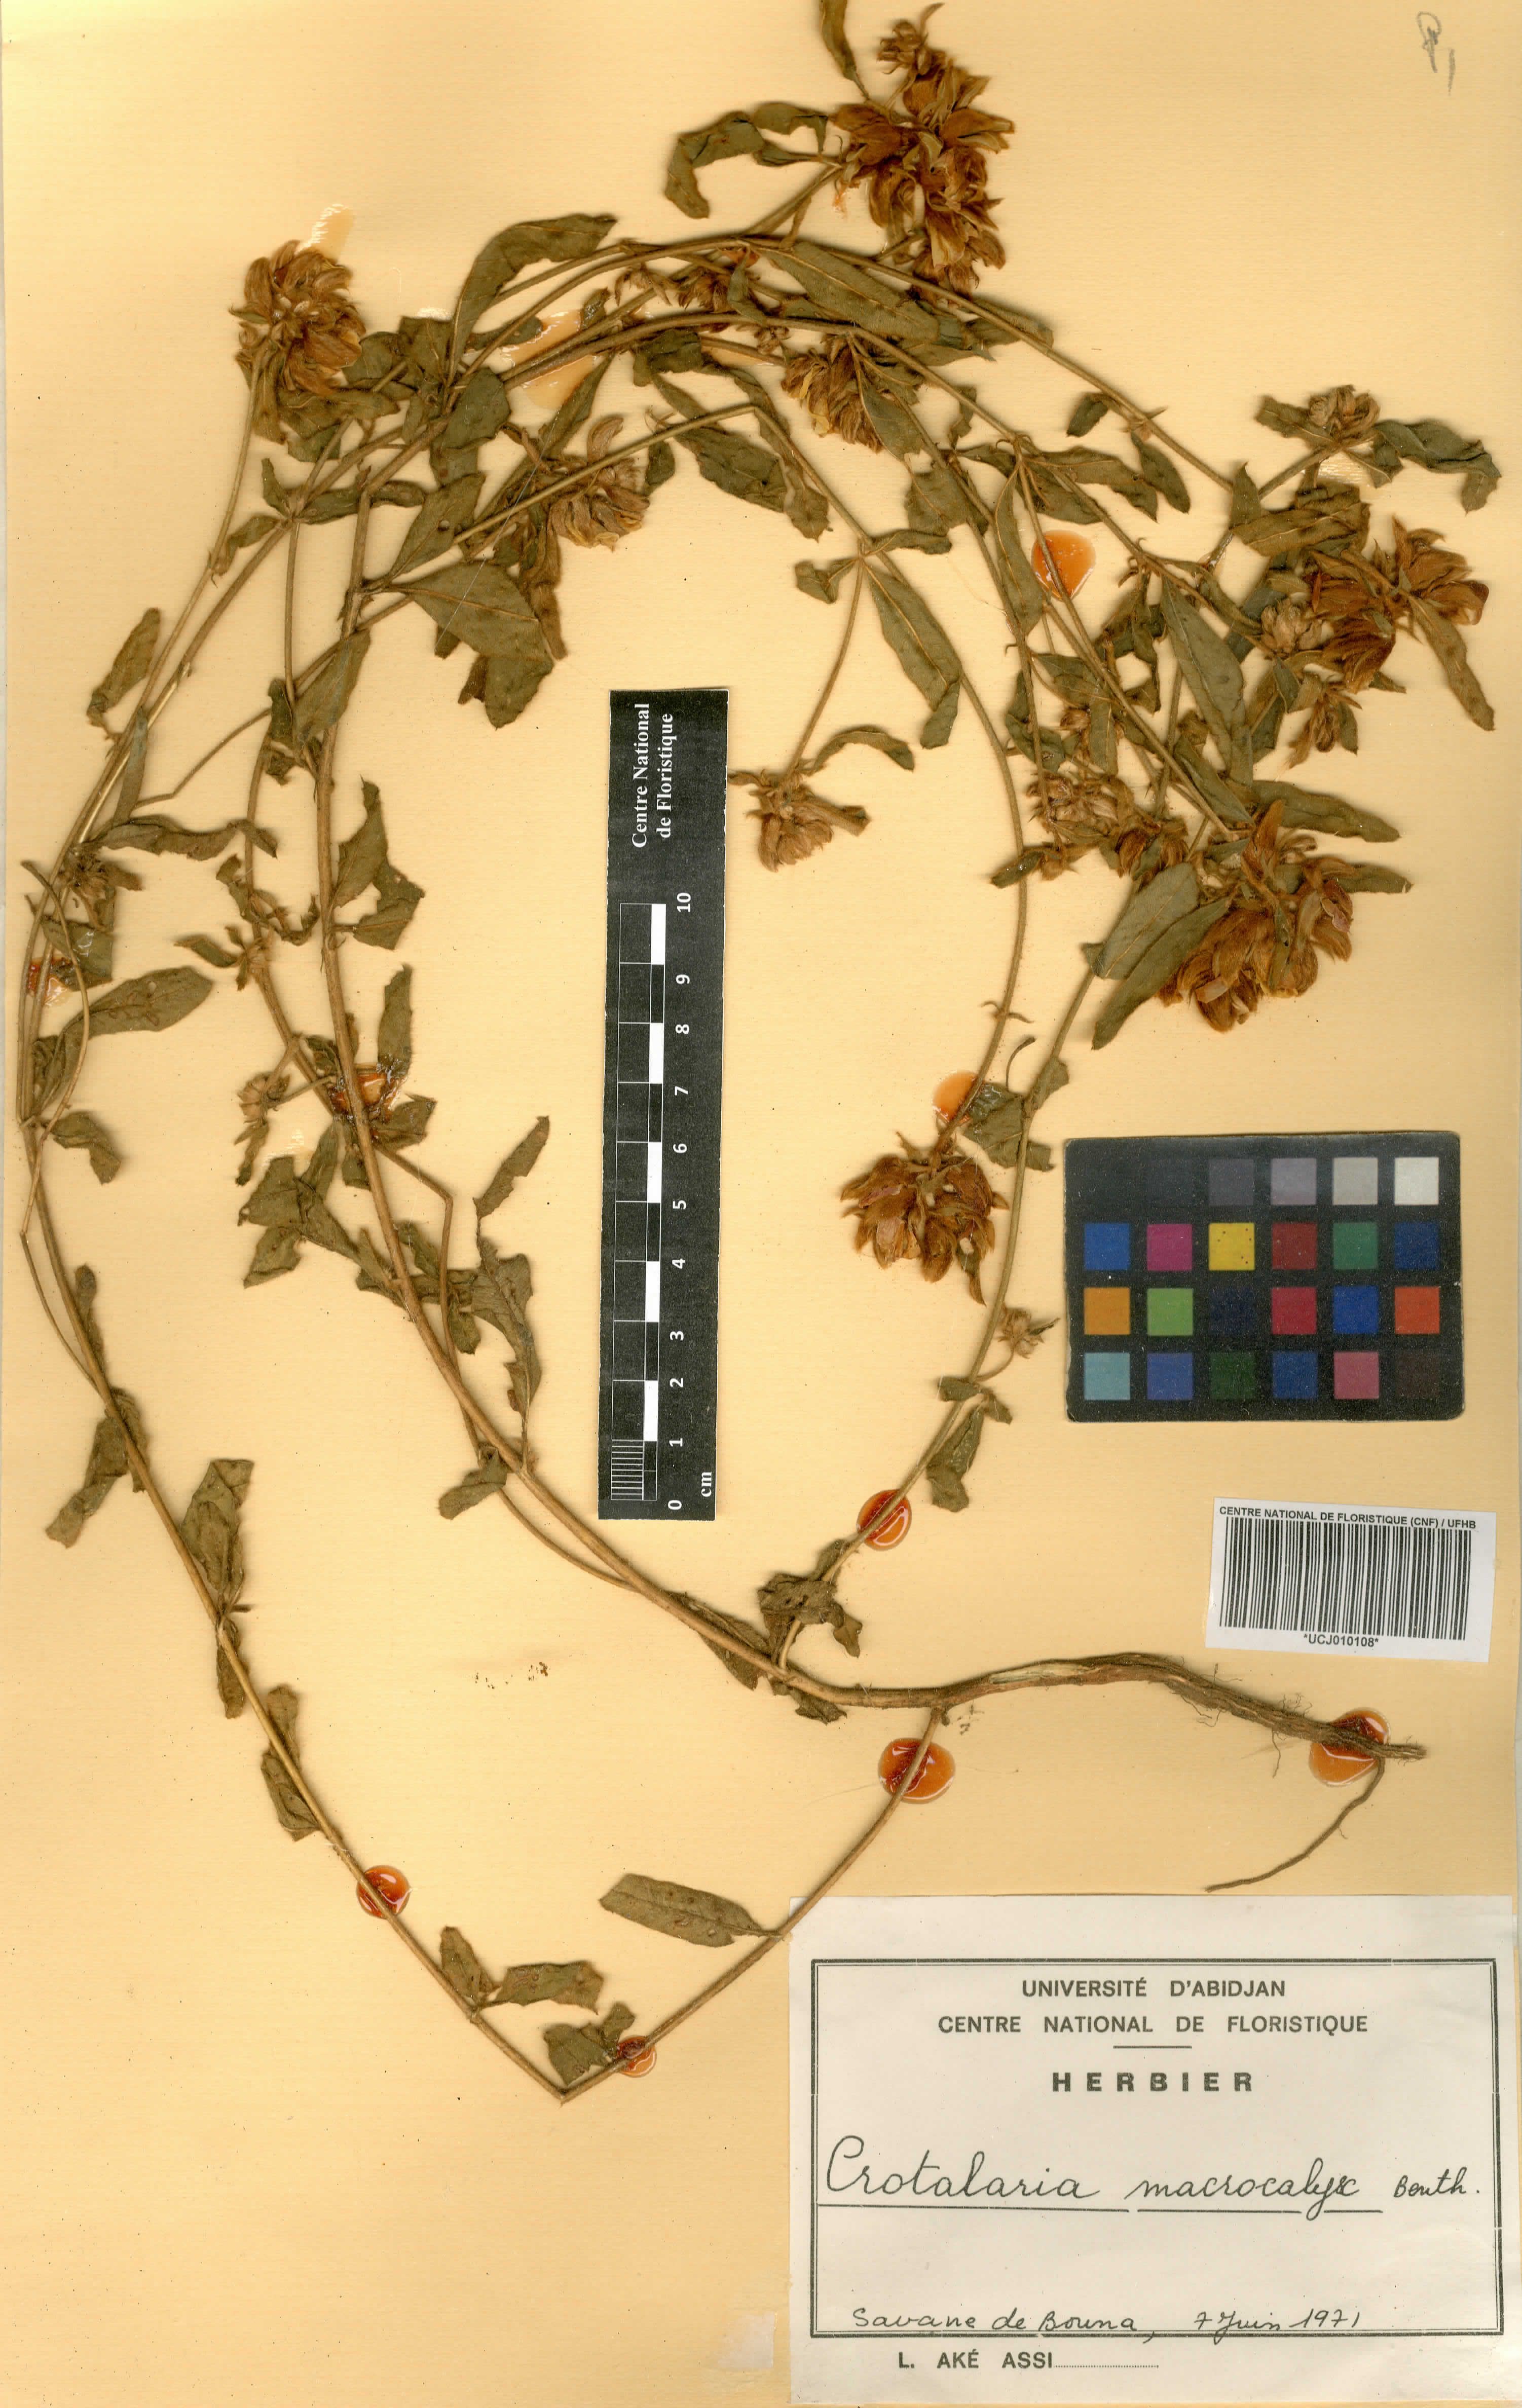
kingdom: Plantae
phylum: Tracheophyta
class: Magnoliopsida
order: Fabales
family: Fabaceae
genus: Crotalaria
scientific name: Crotalaria macrocalyx
